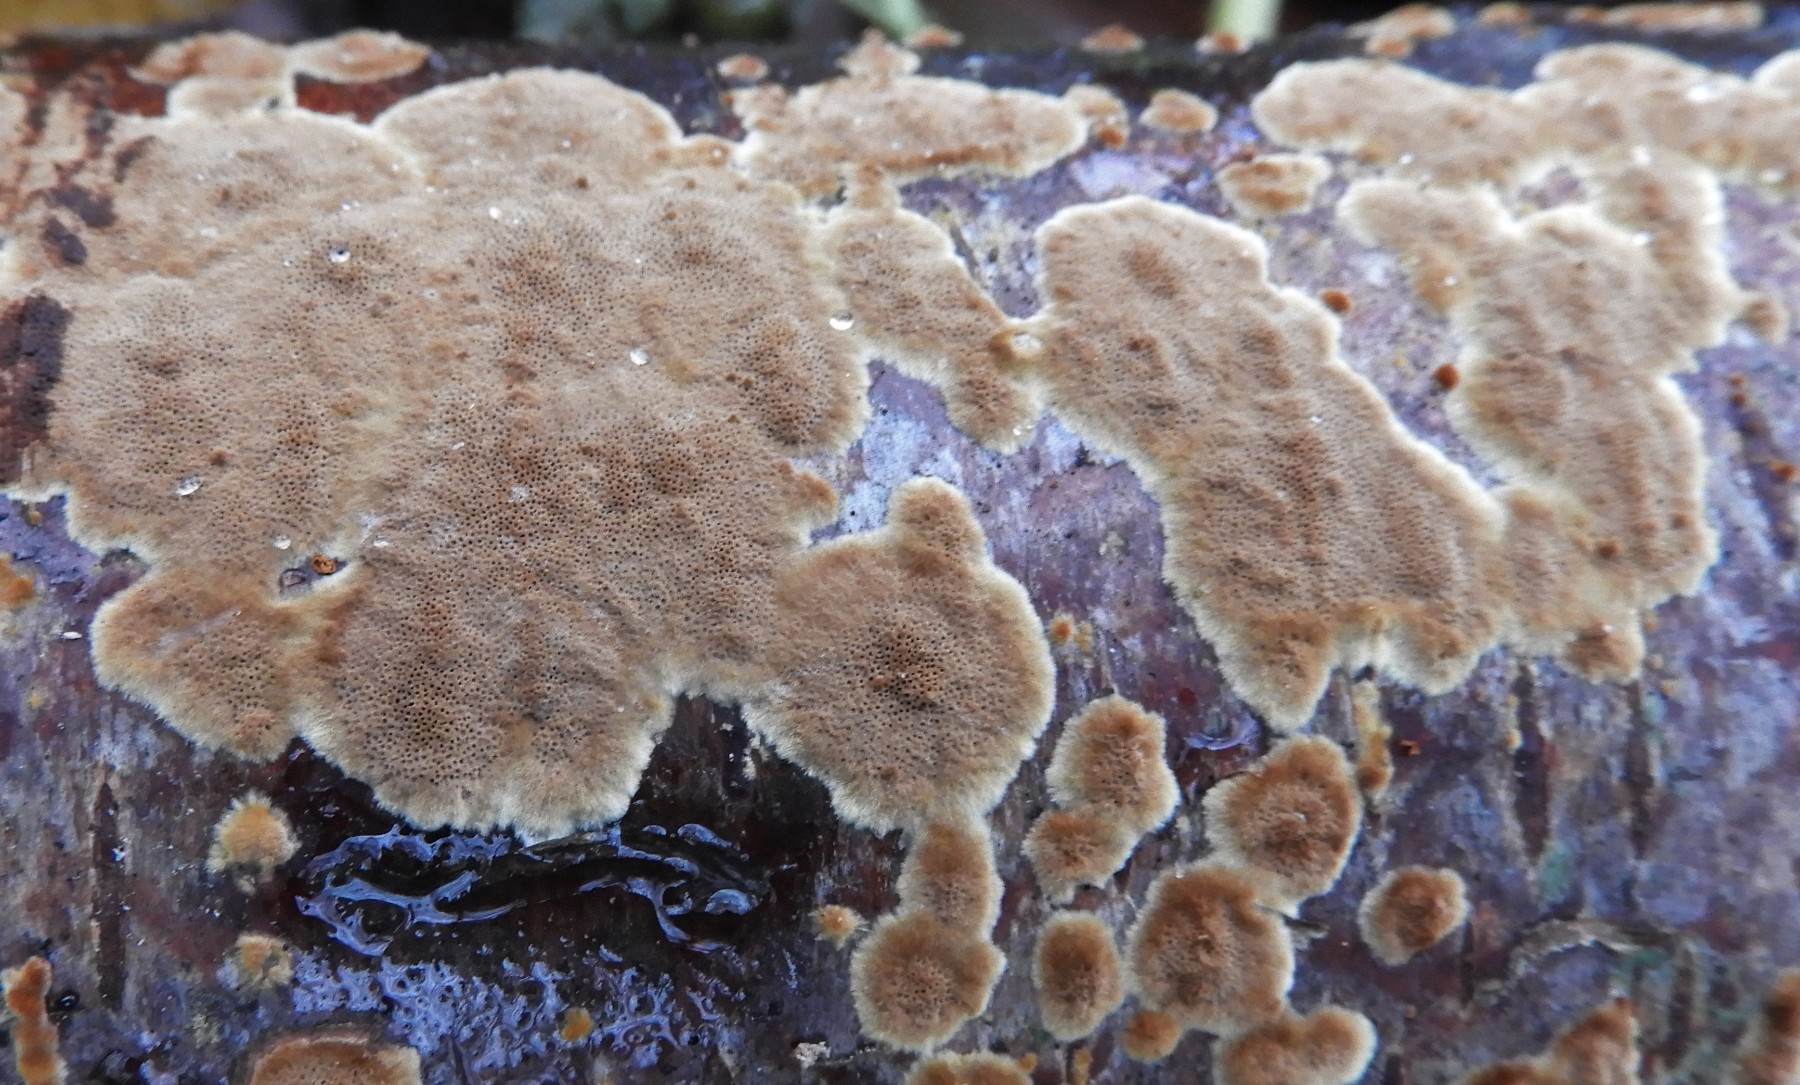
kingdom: Fungi
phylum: Basidiomycota
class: Agaricomycetes
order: Hymenochaetales
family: Hymenochaetaceae
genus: Fuscoporia
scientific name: Fuscoporia ferrea
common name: skorpe-ildporesvamp
